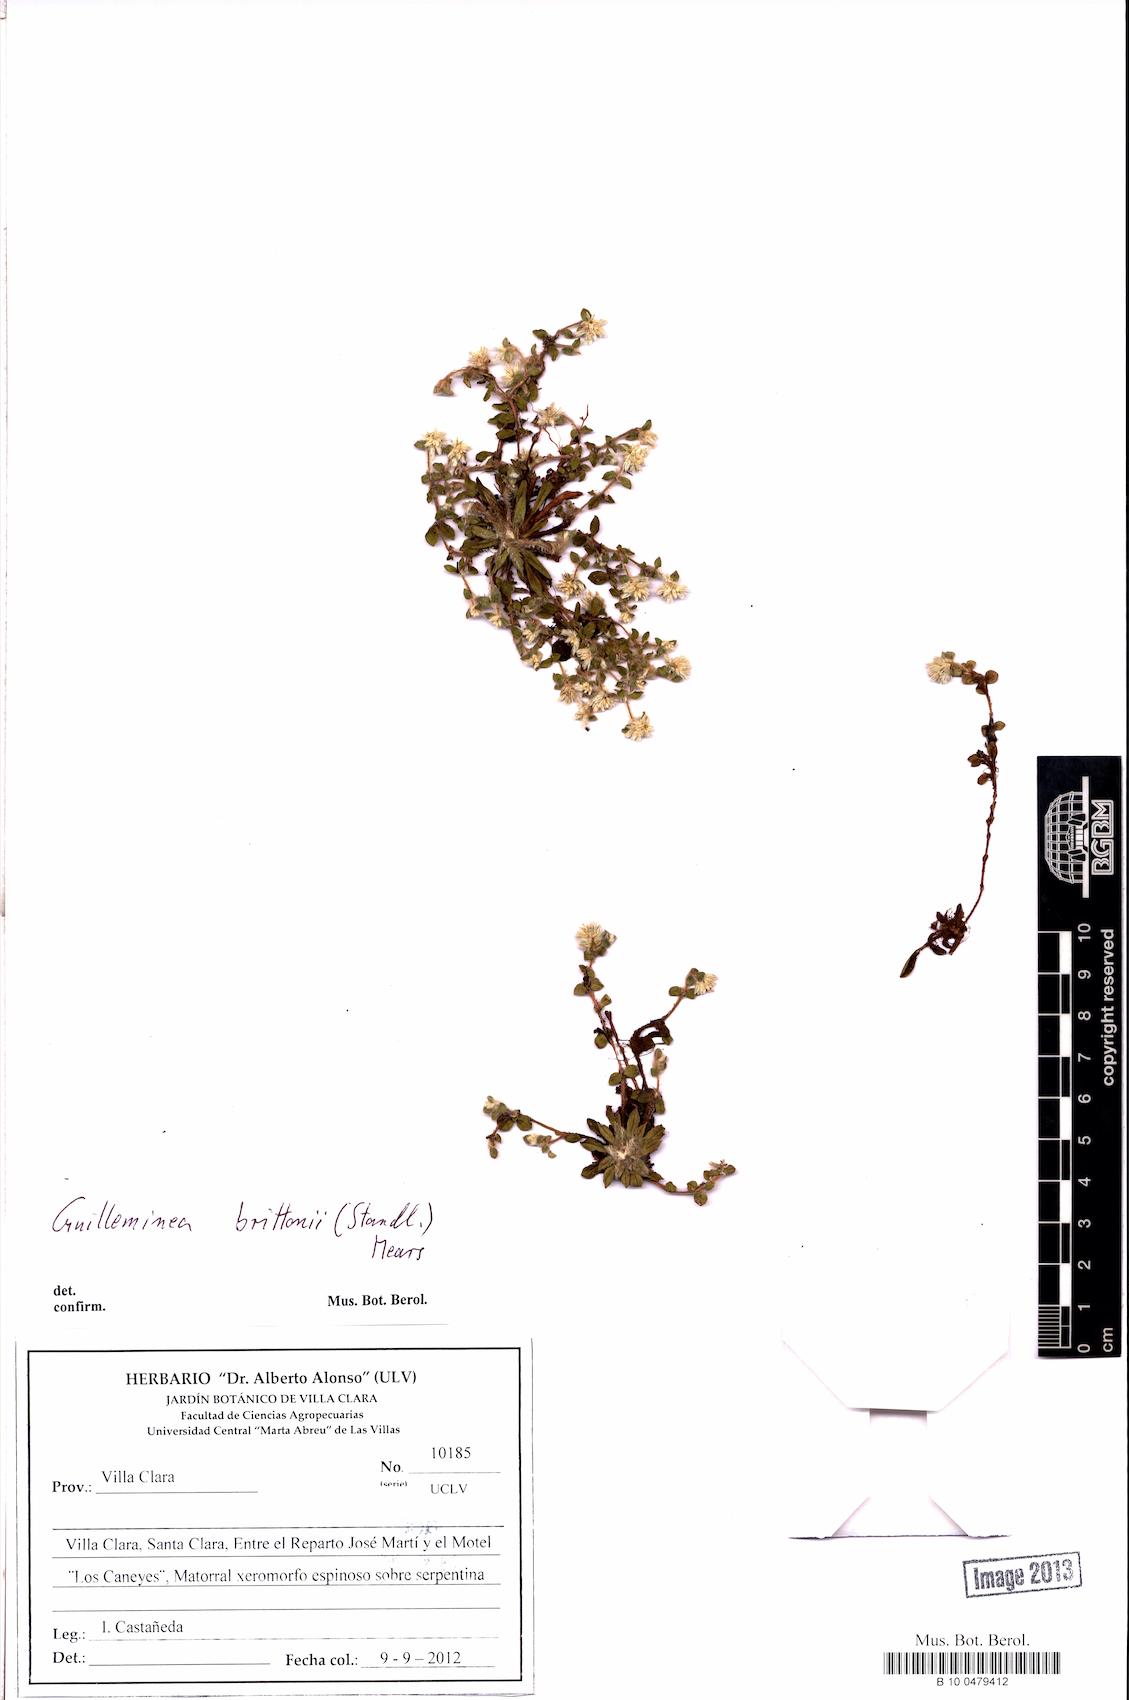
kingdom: Plantae
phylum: Tracheophyta
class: Magnoliopsida
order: Caryophyllales
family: Amaranthaceae
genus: Gomphrena
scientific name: Gomphrena brittonii
